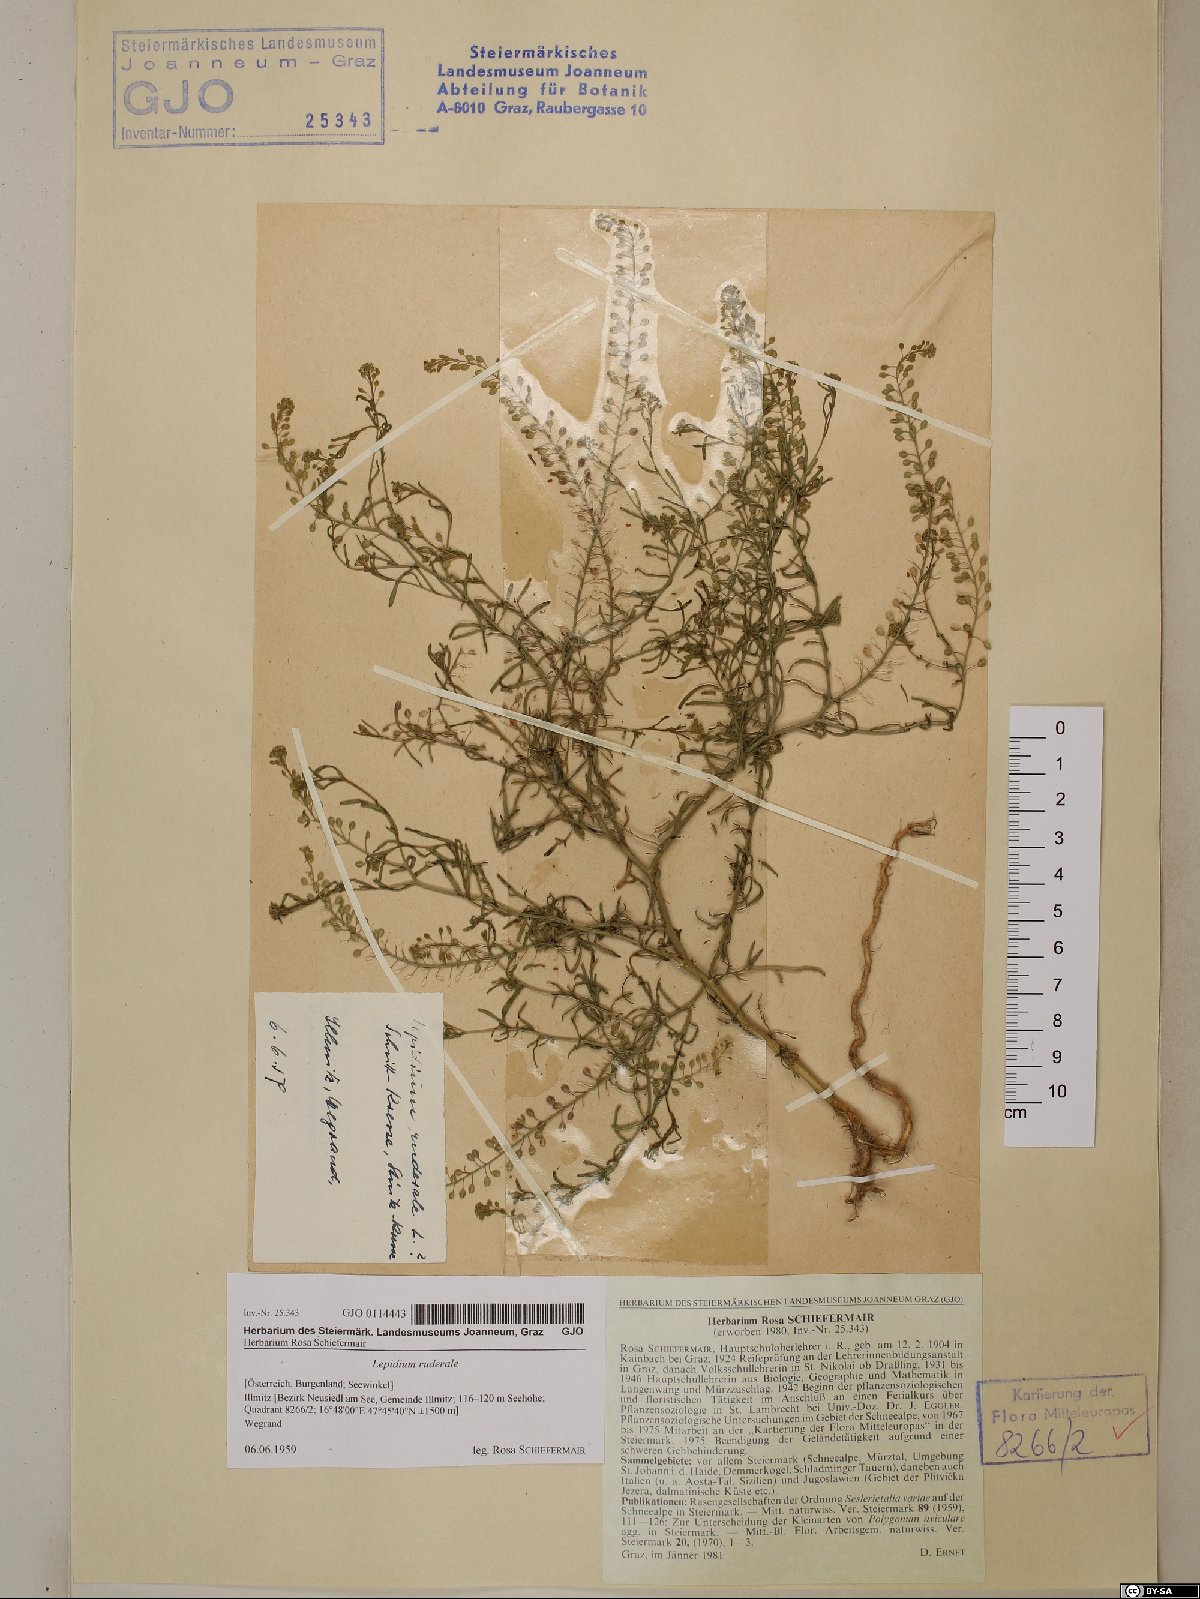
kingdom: Plantae
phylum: Tracheophyta
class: Magnoliopsida
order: Brassicales
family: Brassicaceae
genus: Lepidium
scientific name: Lepidium ruderale
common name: Narrow-leaved pepperwort
